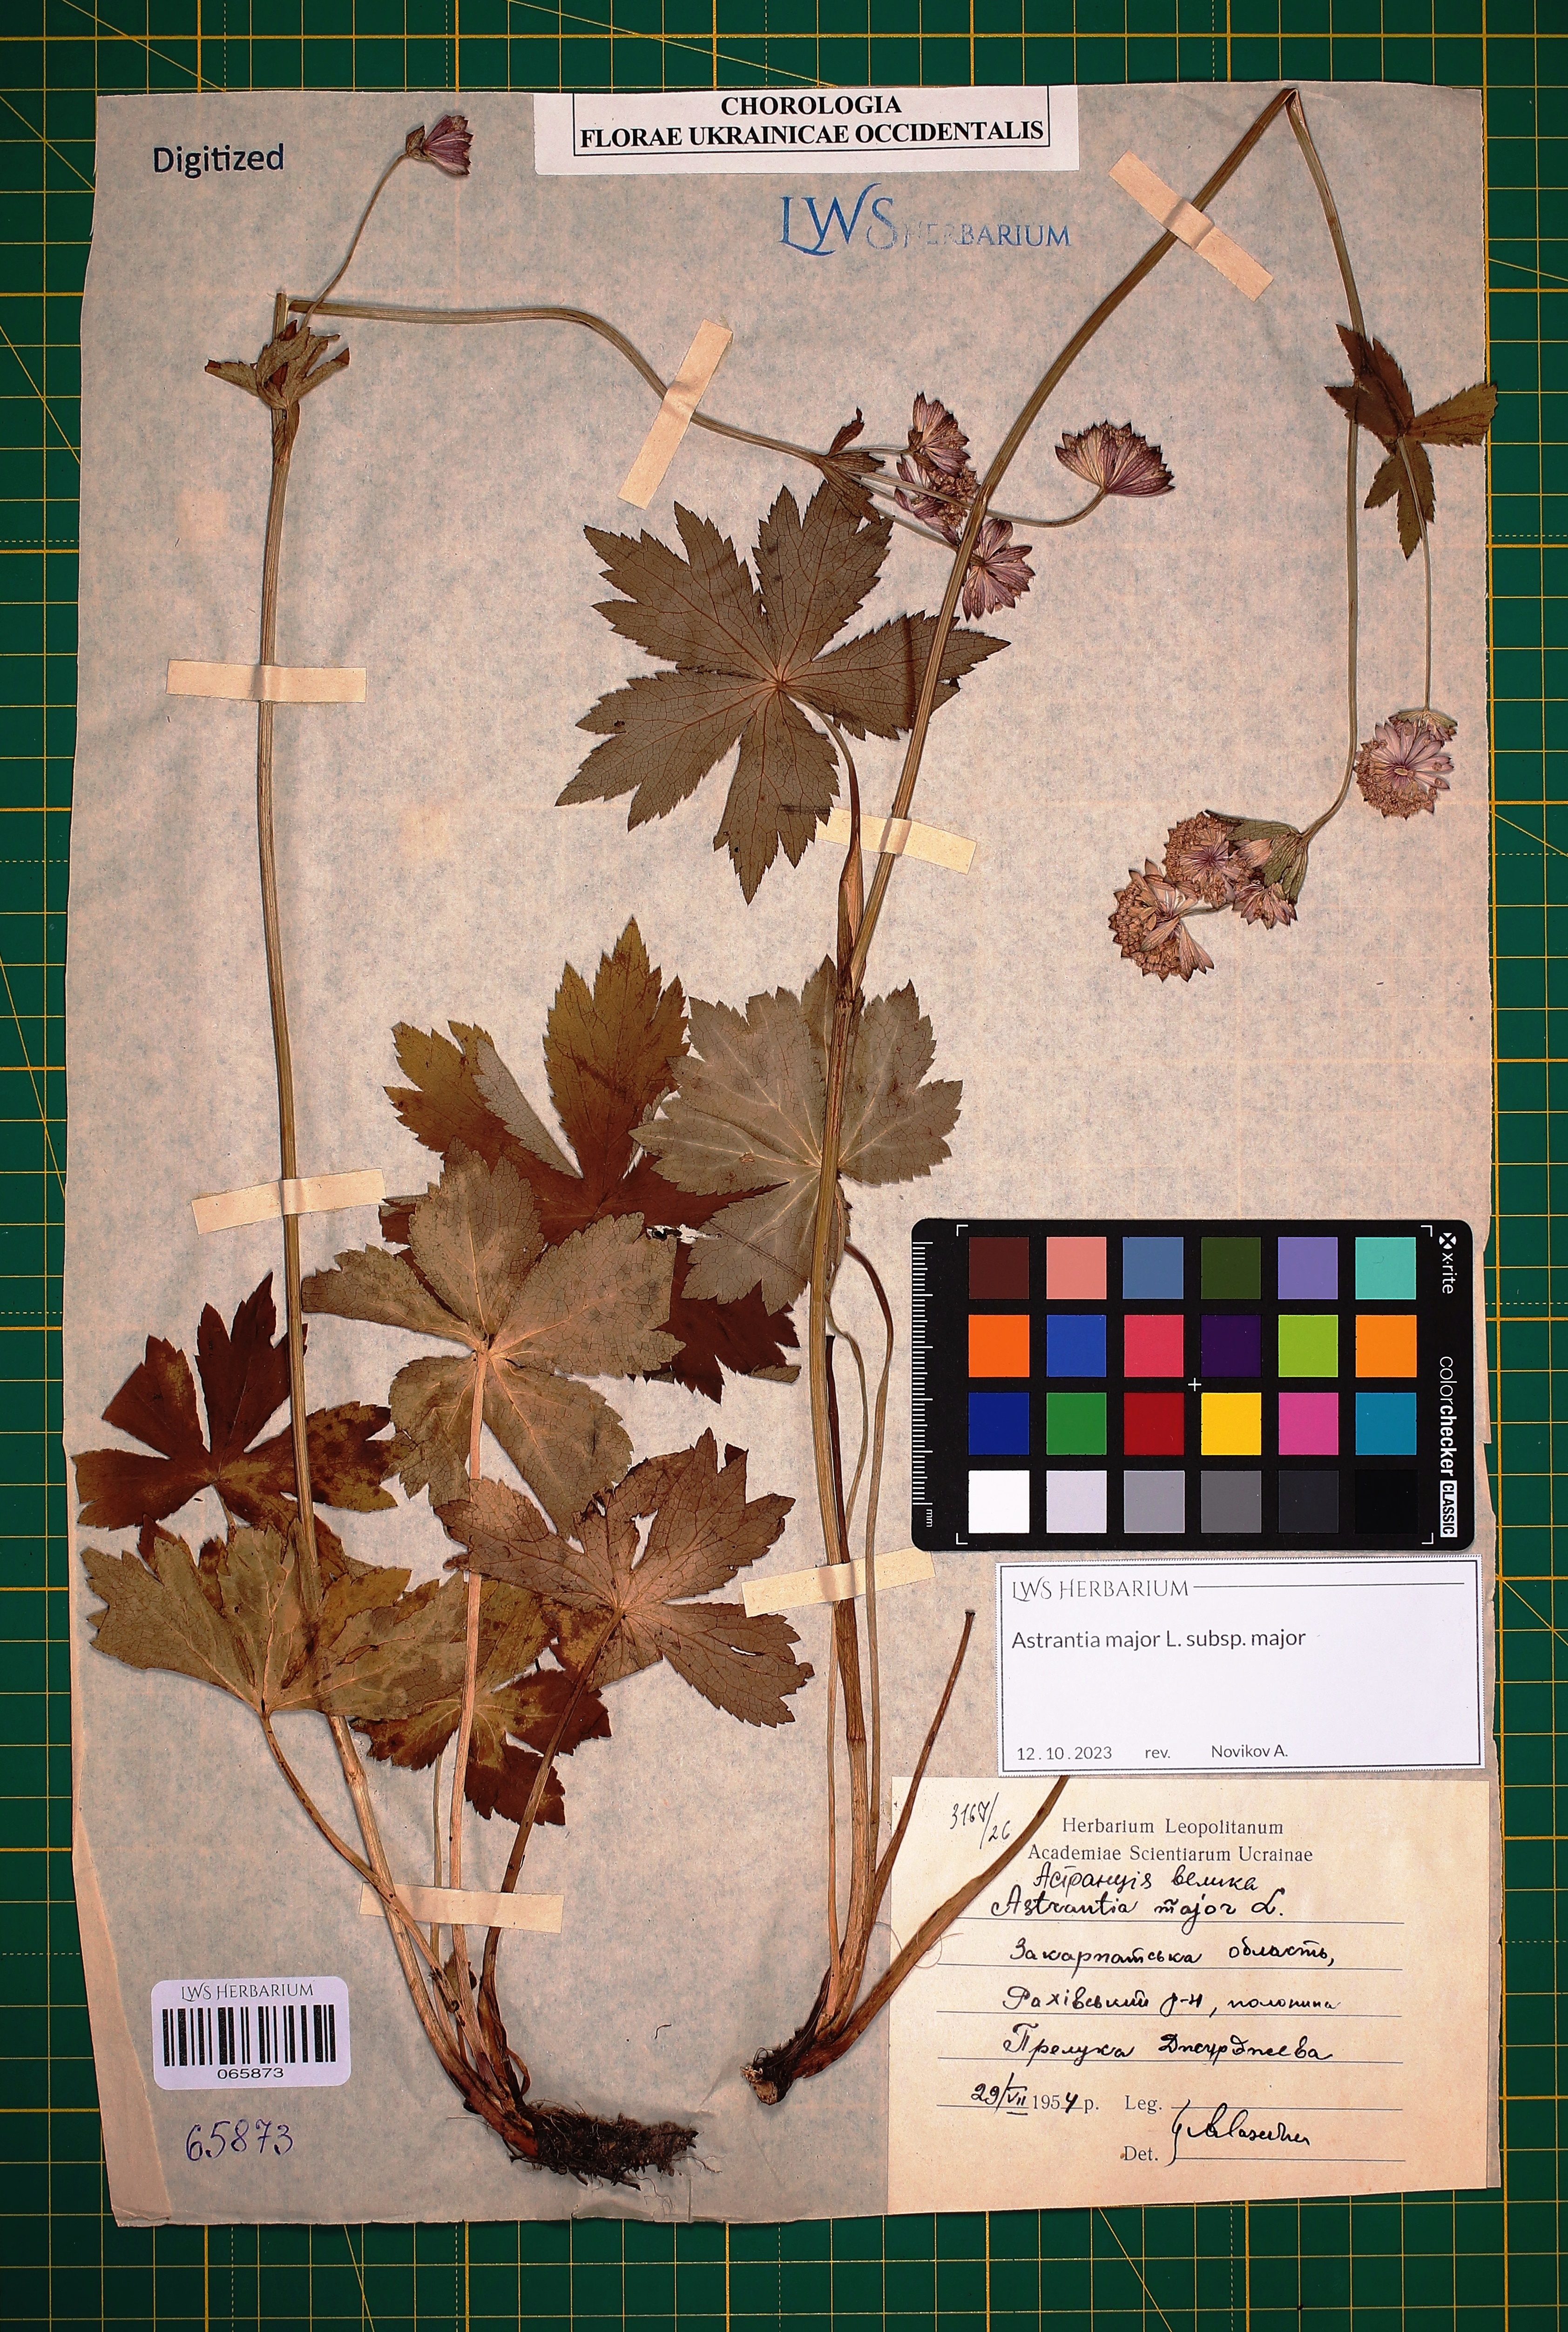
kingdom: Plantae
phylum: Tracheophyta
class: Magnoliopsida
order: Apiales
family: Apiaceae
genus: Astrantia
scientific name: Astrantia major
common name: Greater masterwort
